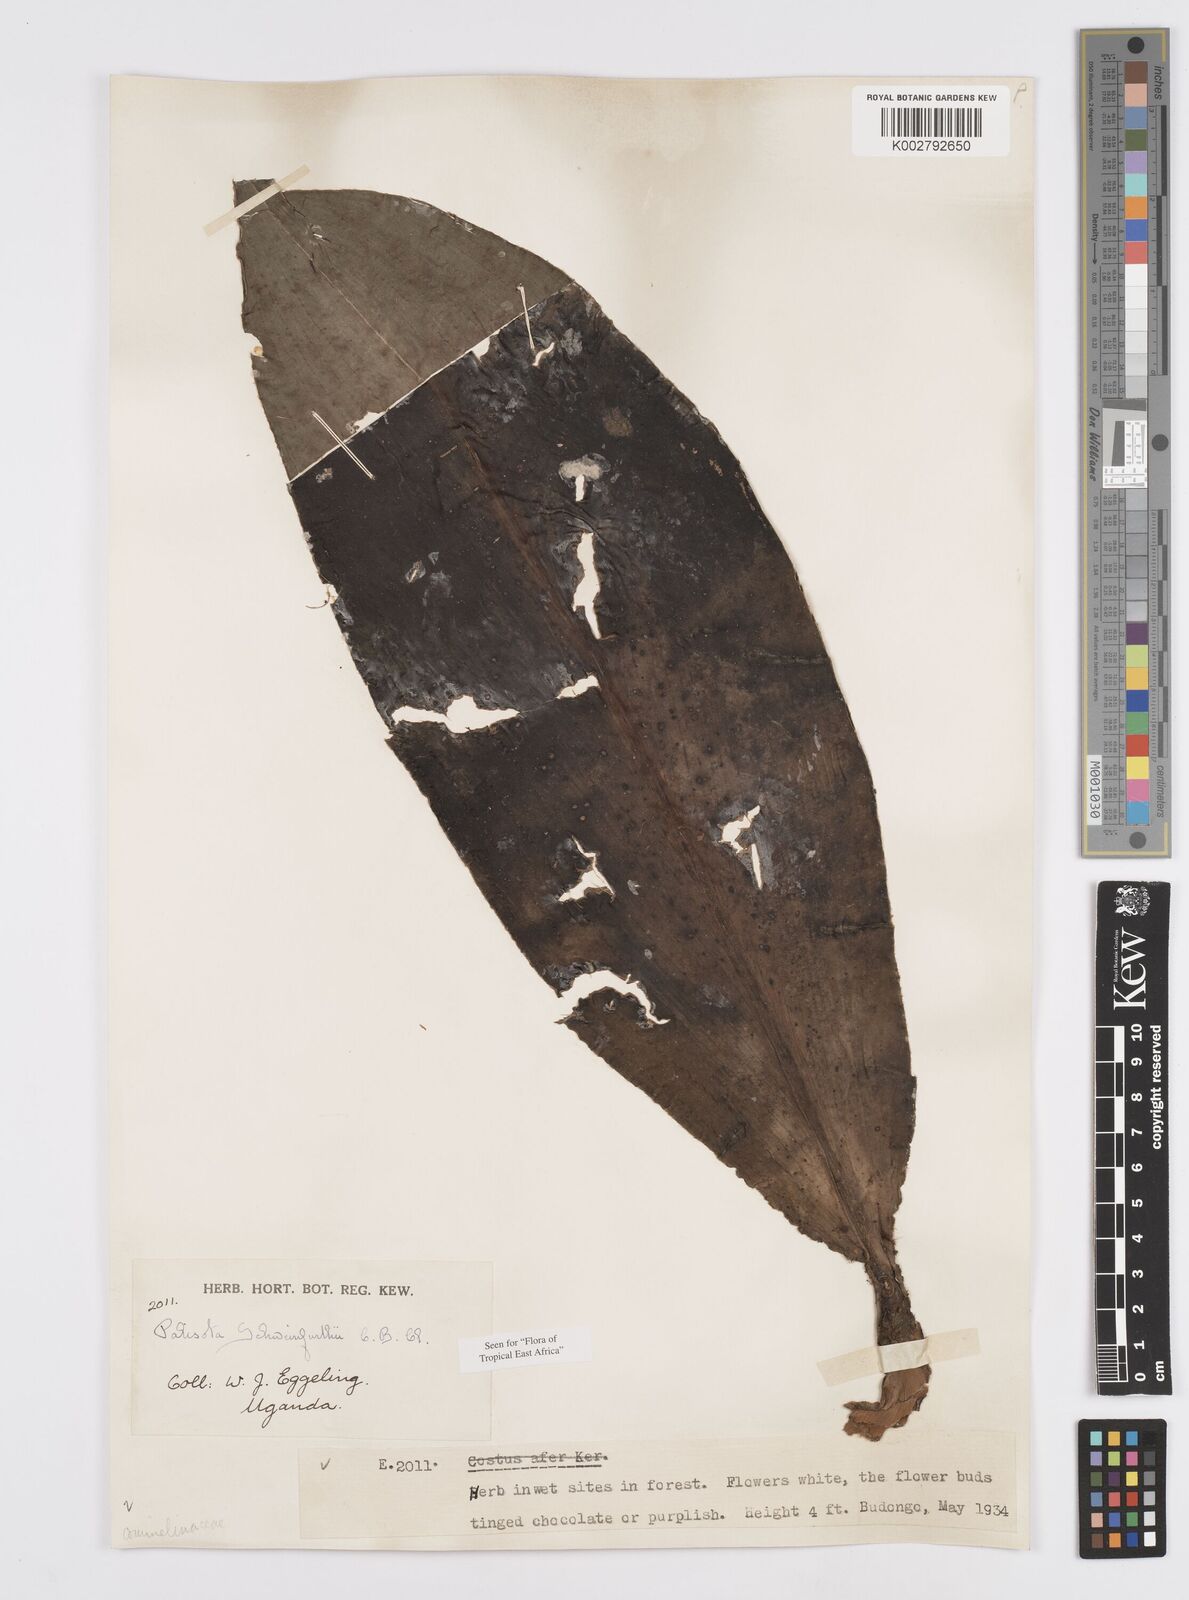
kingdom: Plantae
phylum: Tracheophyta
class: Liliopsida
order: Commelinales
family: Commelinaceae
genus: Palisota
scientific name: Palisota schweinfurthii
